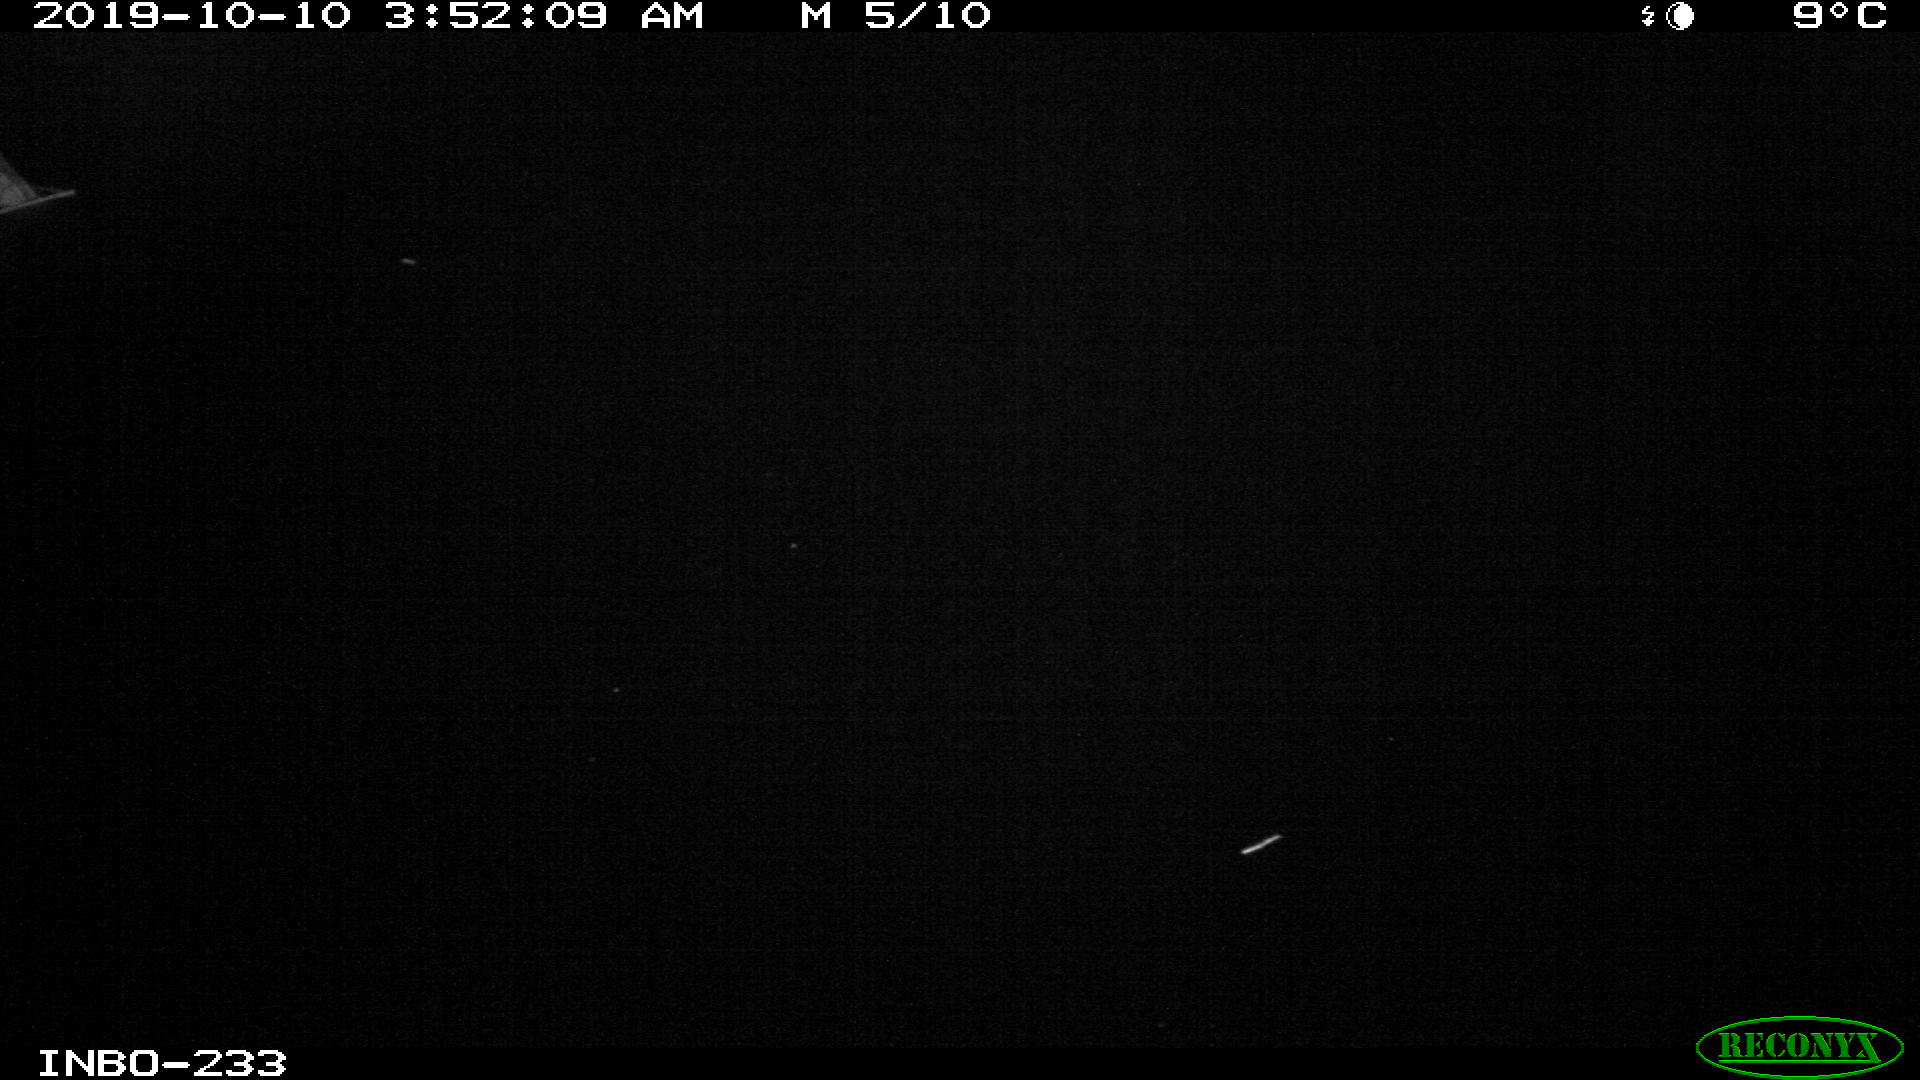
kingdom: Animalia
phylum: Chordata
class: Aves
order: Anseriformes
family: Anatidae
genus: Anas
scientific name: Anas platyrhynchos
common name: Mallard
